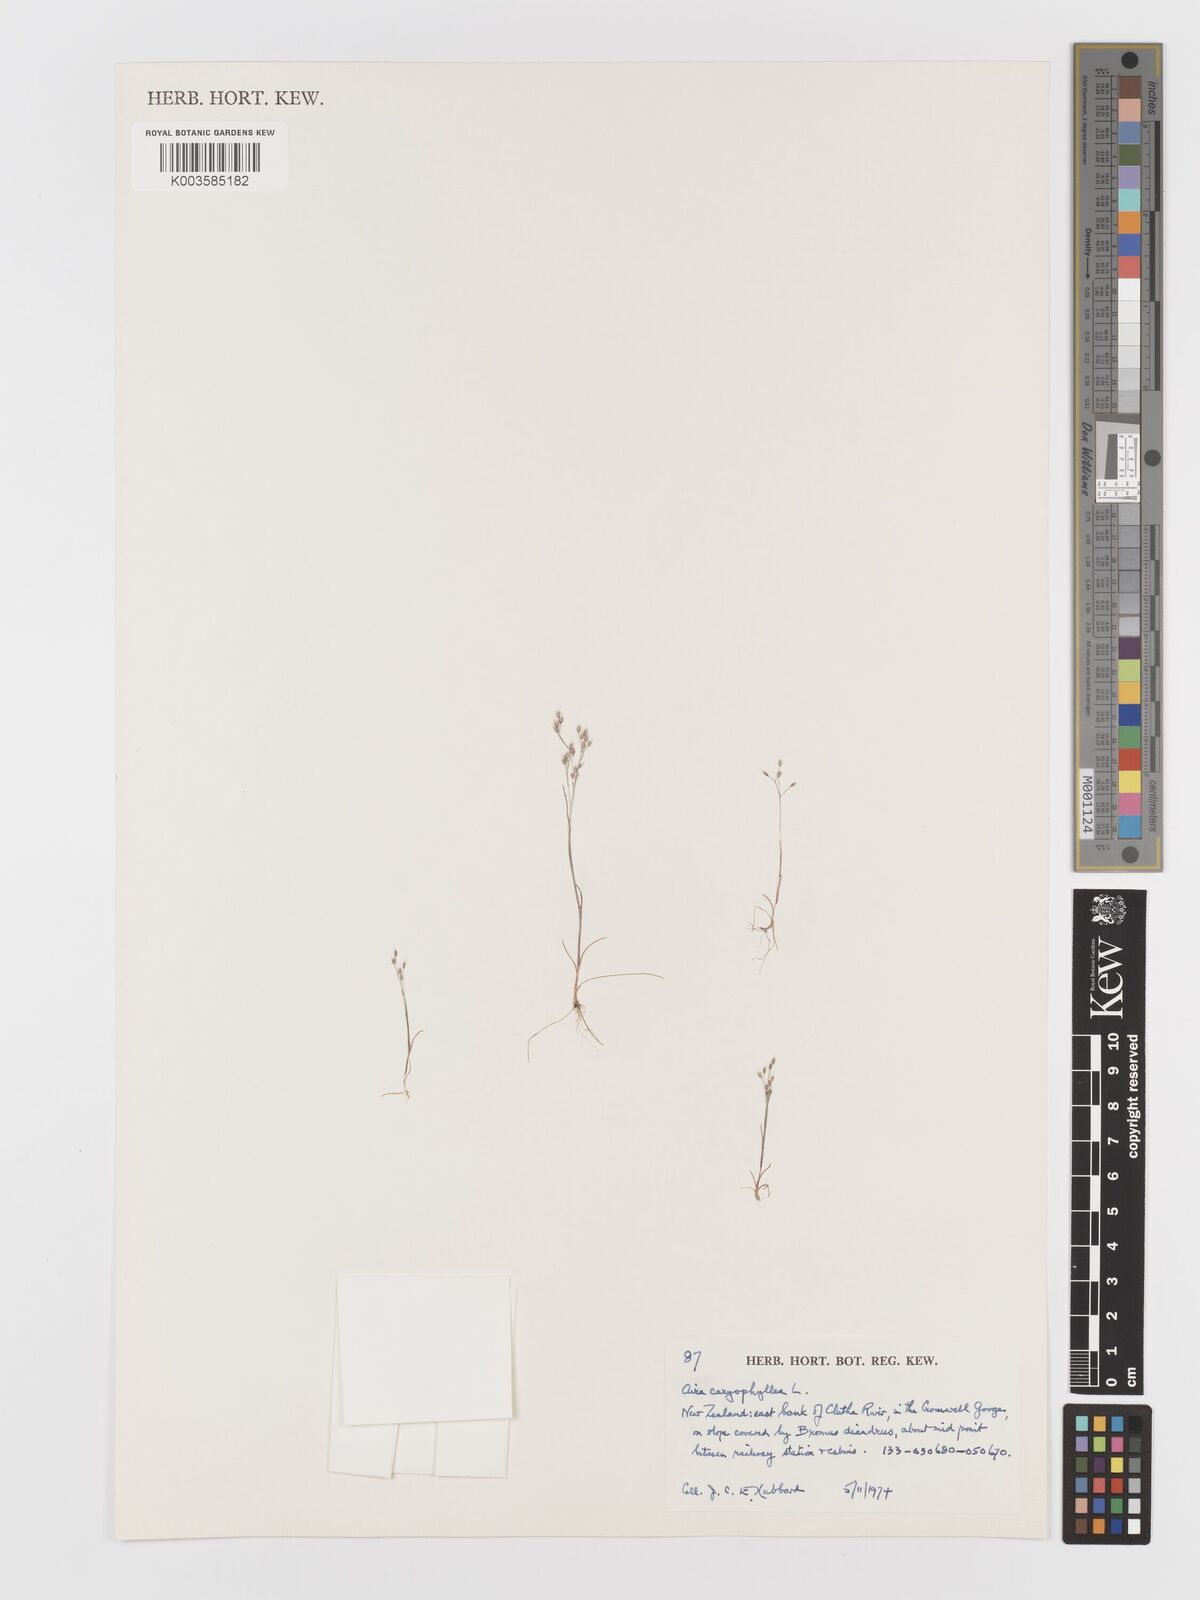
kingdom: Plantae
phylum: Tracheophyta
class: Liliopsida
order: Poales
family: Poaceae
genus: Aira
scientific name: Aira cupaniana
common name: Silver hairgrass
